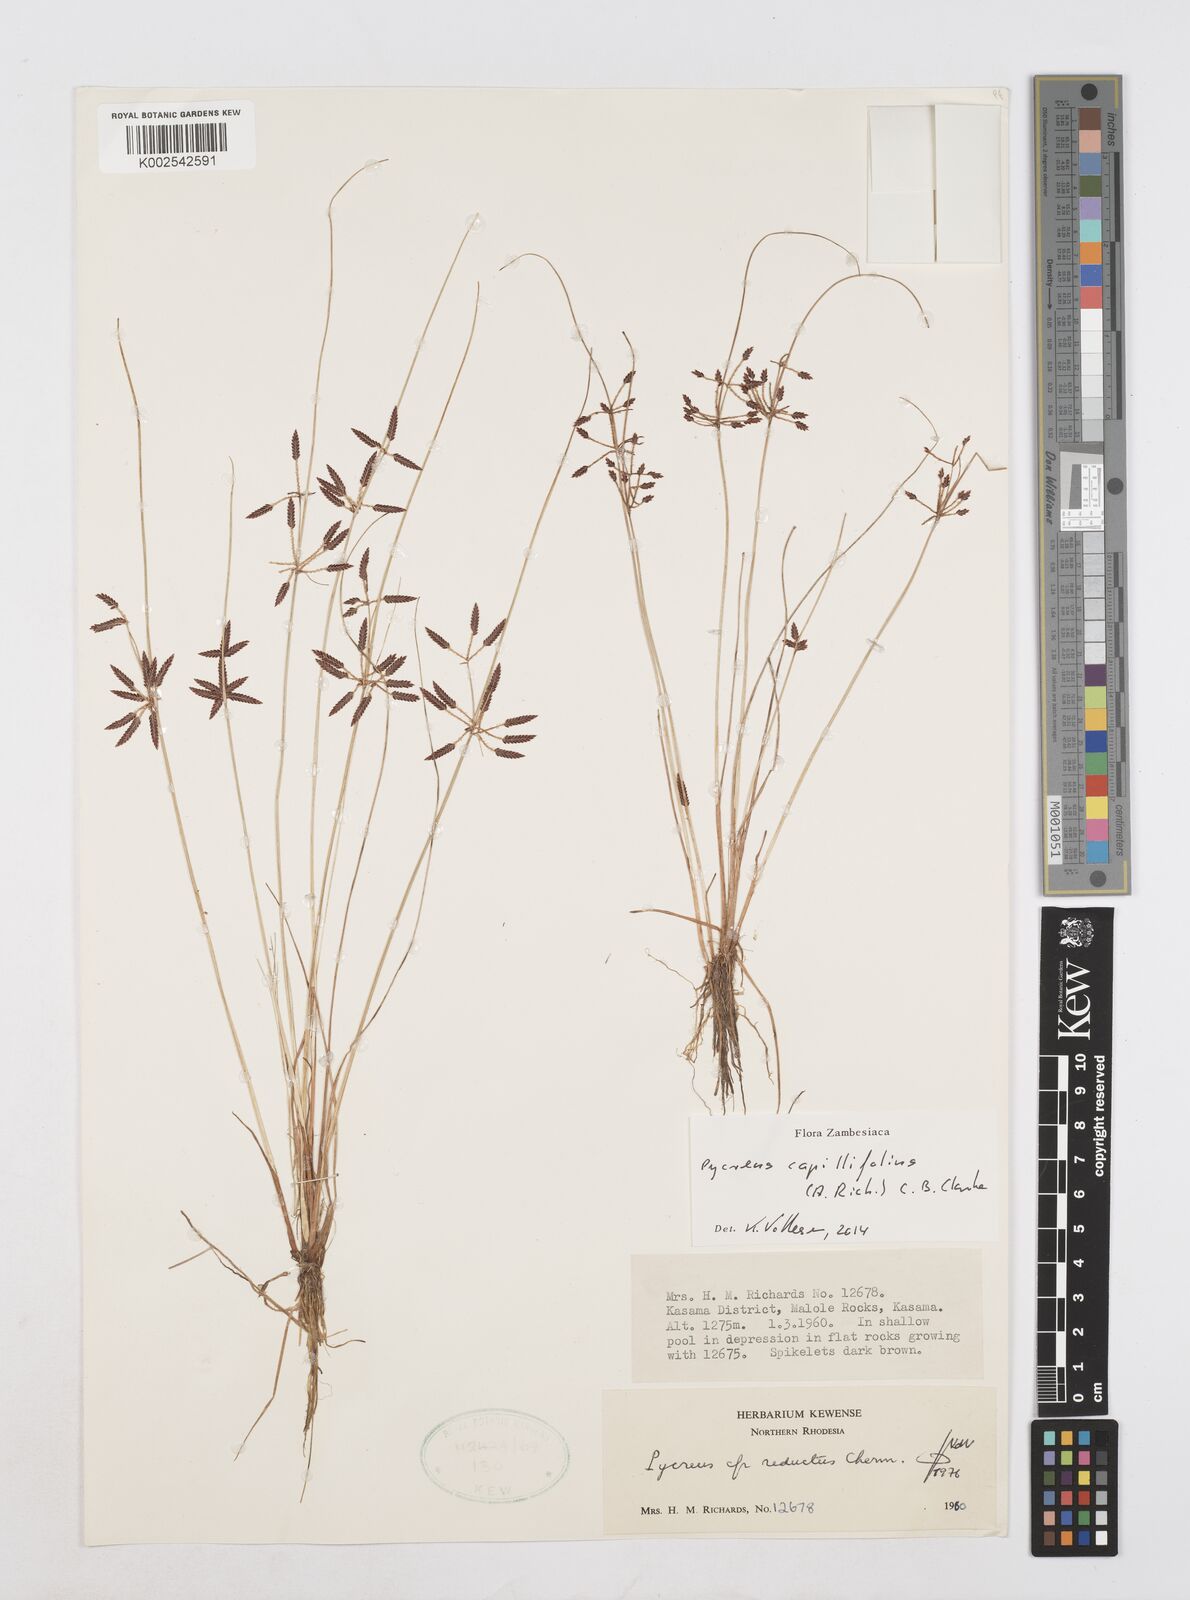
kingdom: Plantae
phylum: Tracheophyta
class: Liliopsida
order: Poales
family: Cyperaceae
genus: Cyperus
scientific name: Cyperus capillifolius
